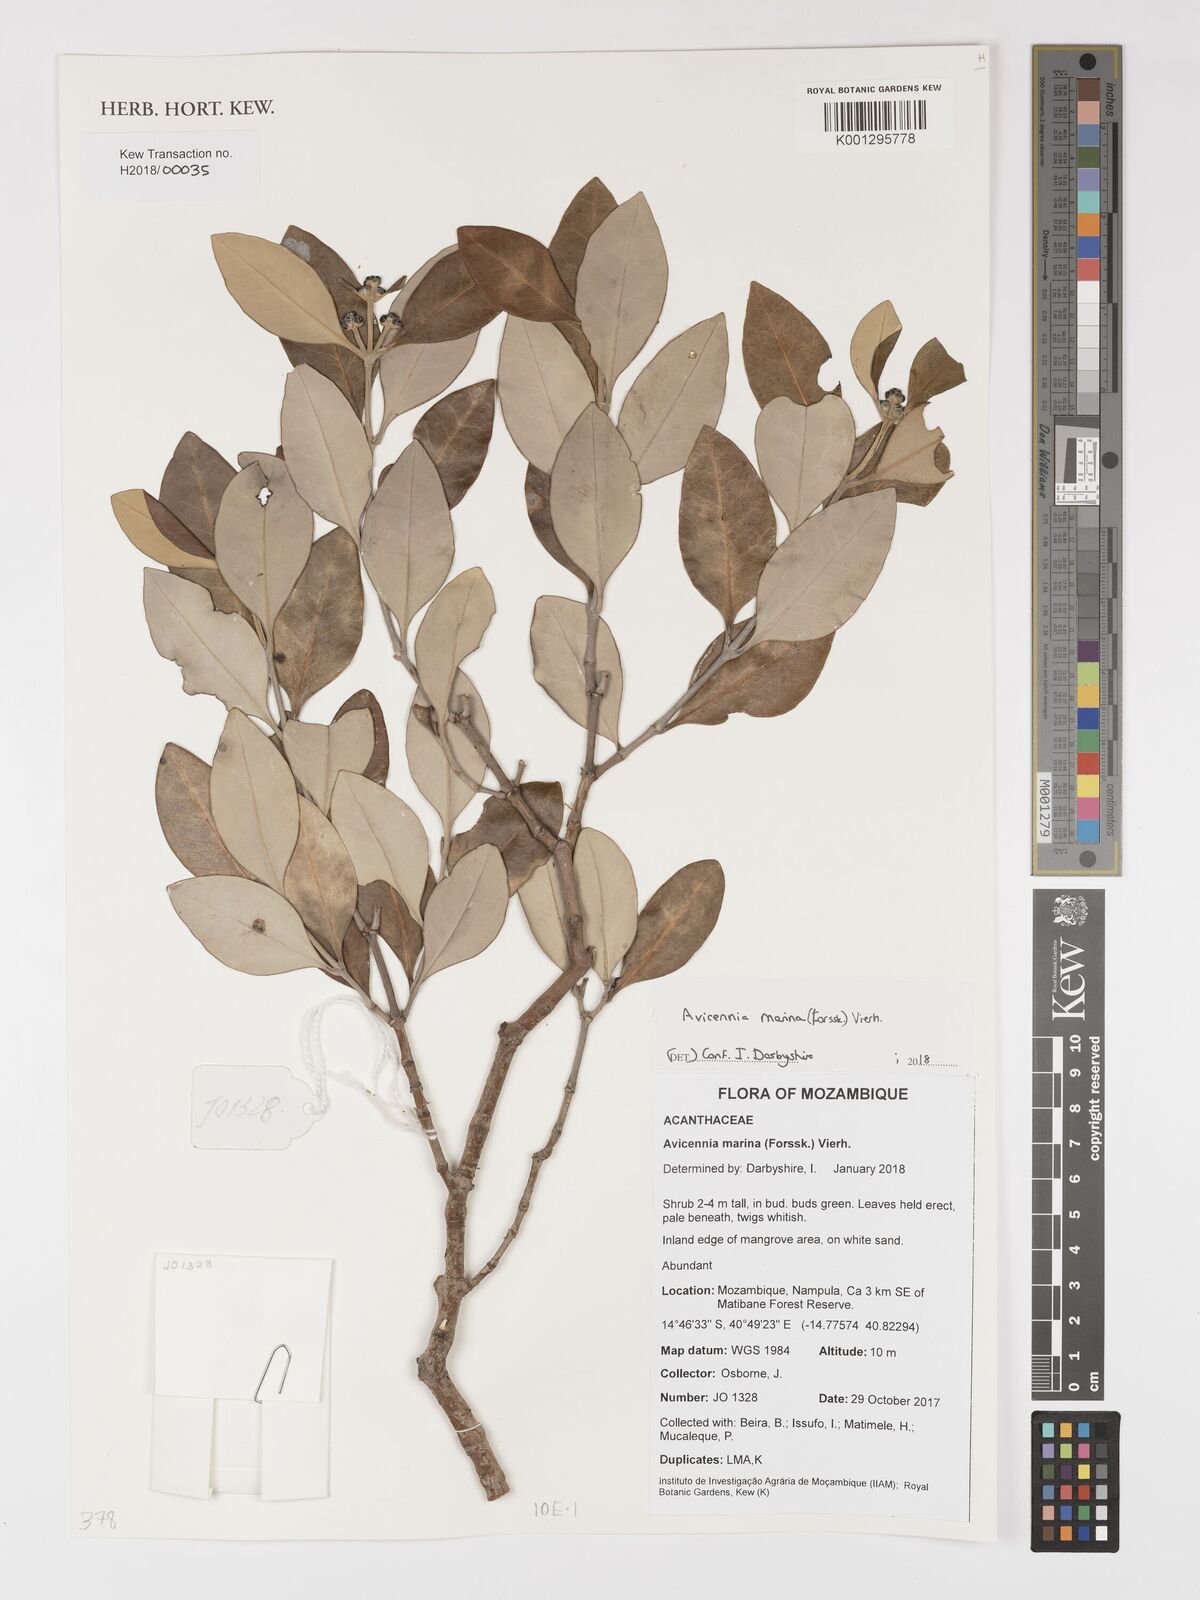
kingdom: Plantae
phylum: Tracheophyta
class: Magnoliopsida
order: Lamiales
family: Acanthaceae
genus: Avicennia
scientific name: Avicennia marina
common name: Gray mangrove
